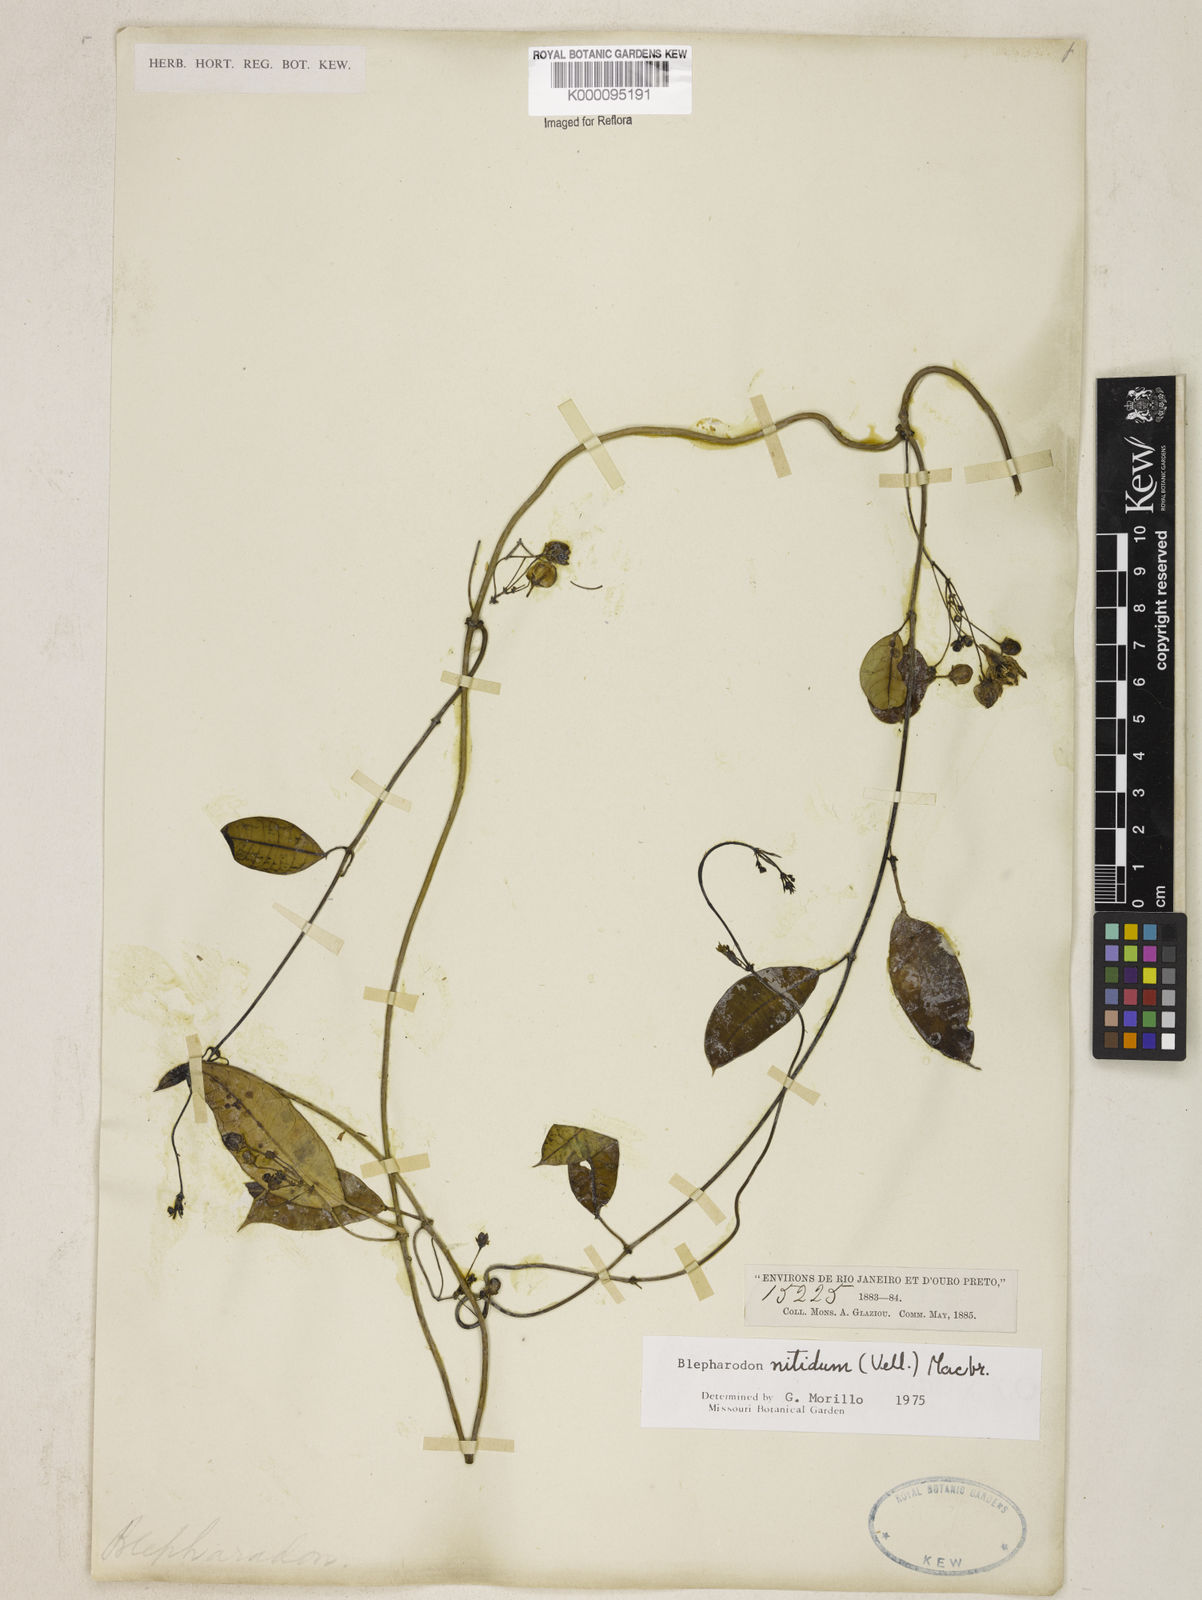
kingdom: Plantae
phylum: Tracheophyta
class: Magnoliopsida
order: Gentianales
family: Apocynaceae
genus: Blepharodon
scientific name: Blepharodon pictum
